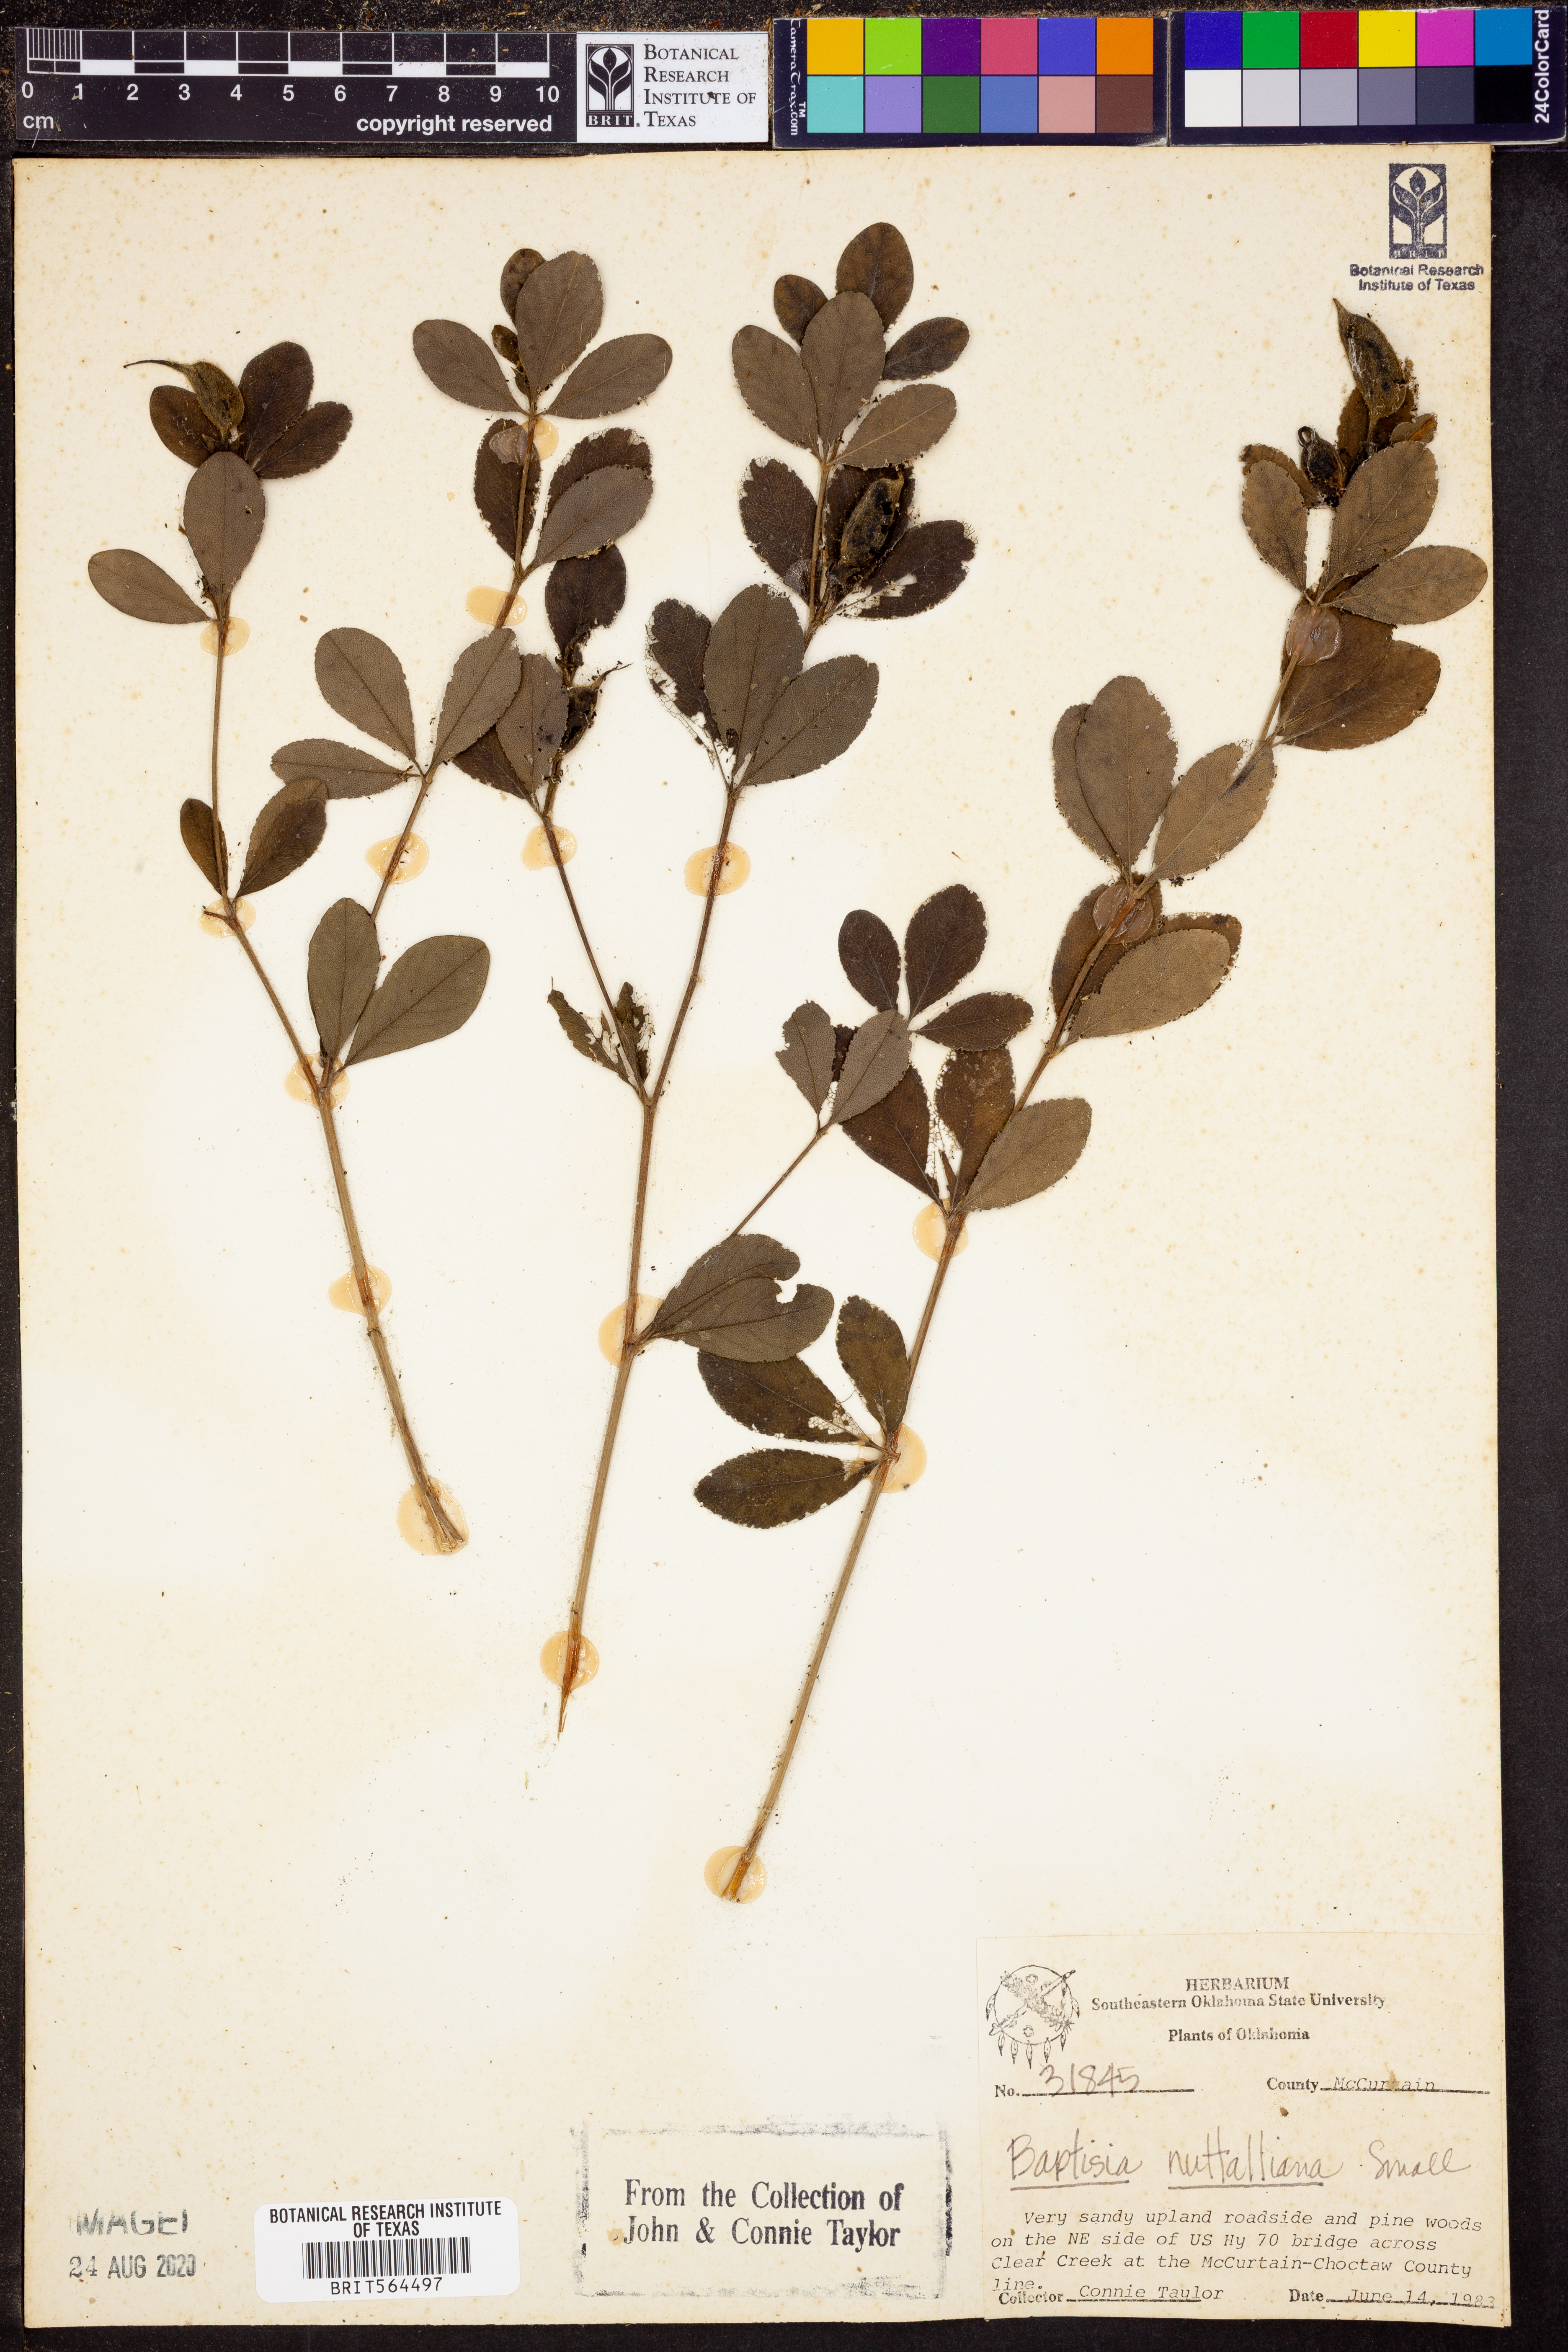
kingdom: Plantae
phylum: Tracheophyta
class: Magnoliopsida
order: Fabales
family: Fabaceae
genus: Baptisia
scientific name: Baptisia nuttalliana
